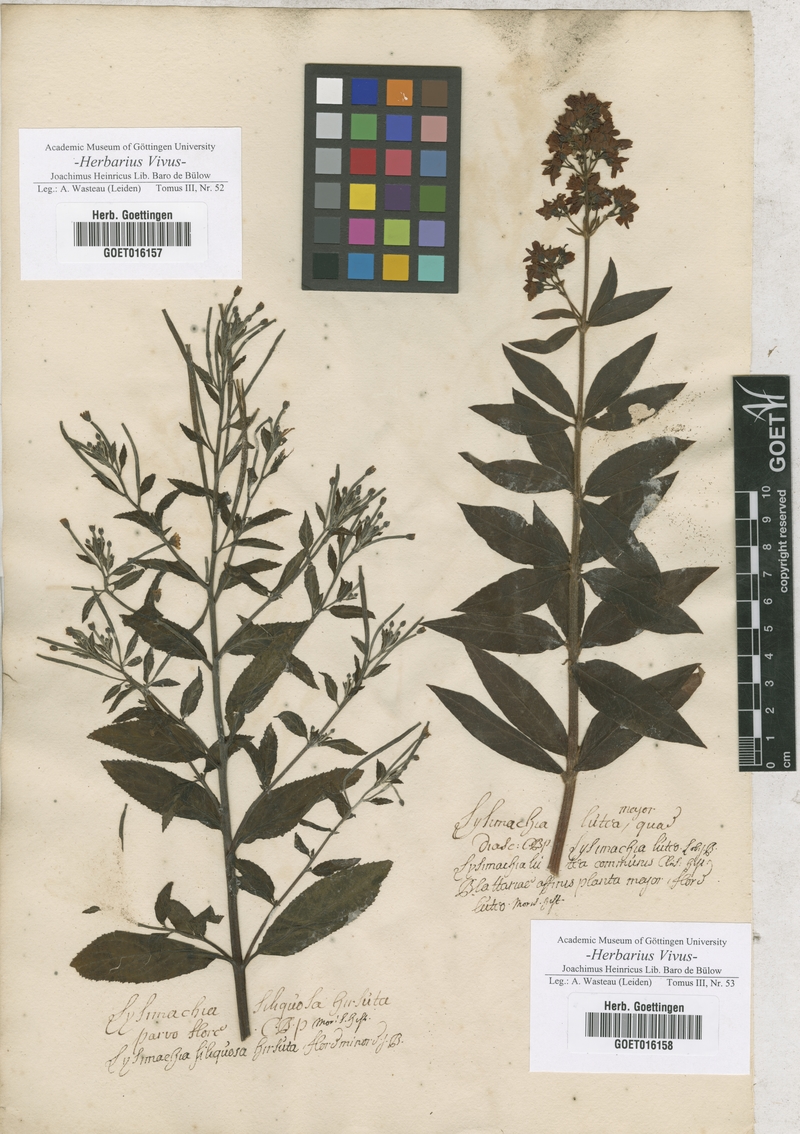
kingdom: Plantae
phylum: Tracheophyta
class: Magnoliopsida
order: Myrtales
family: Onagraceae
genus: Epilobium
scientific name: Epilobium hirsutum
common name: Great willowherb
